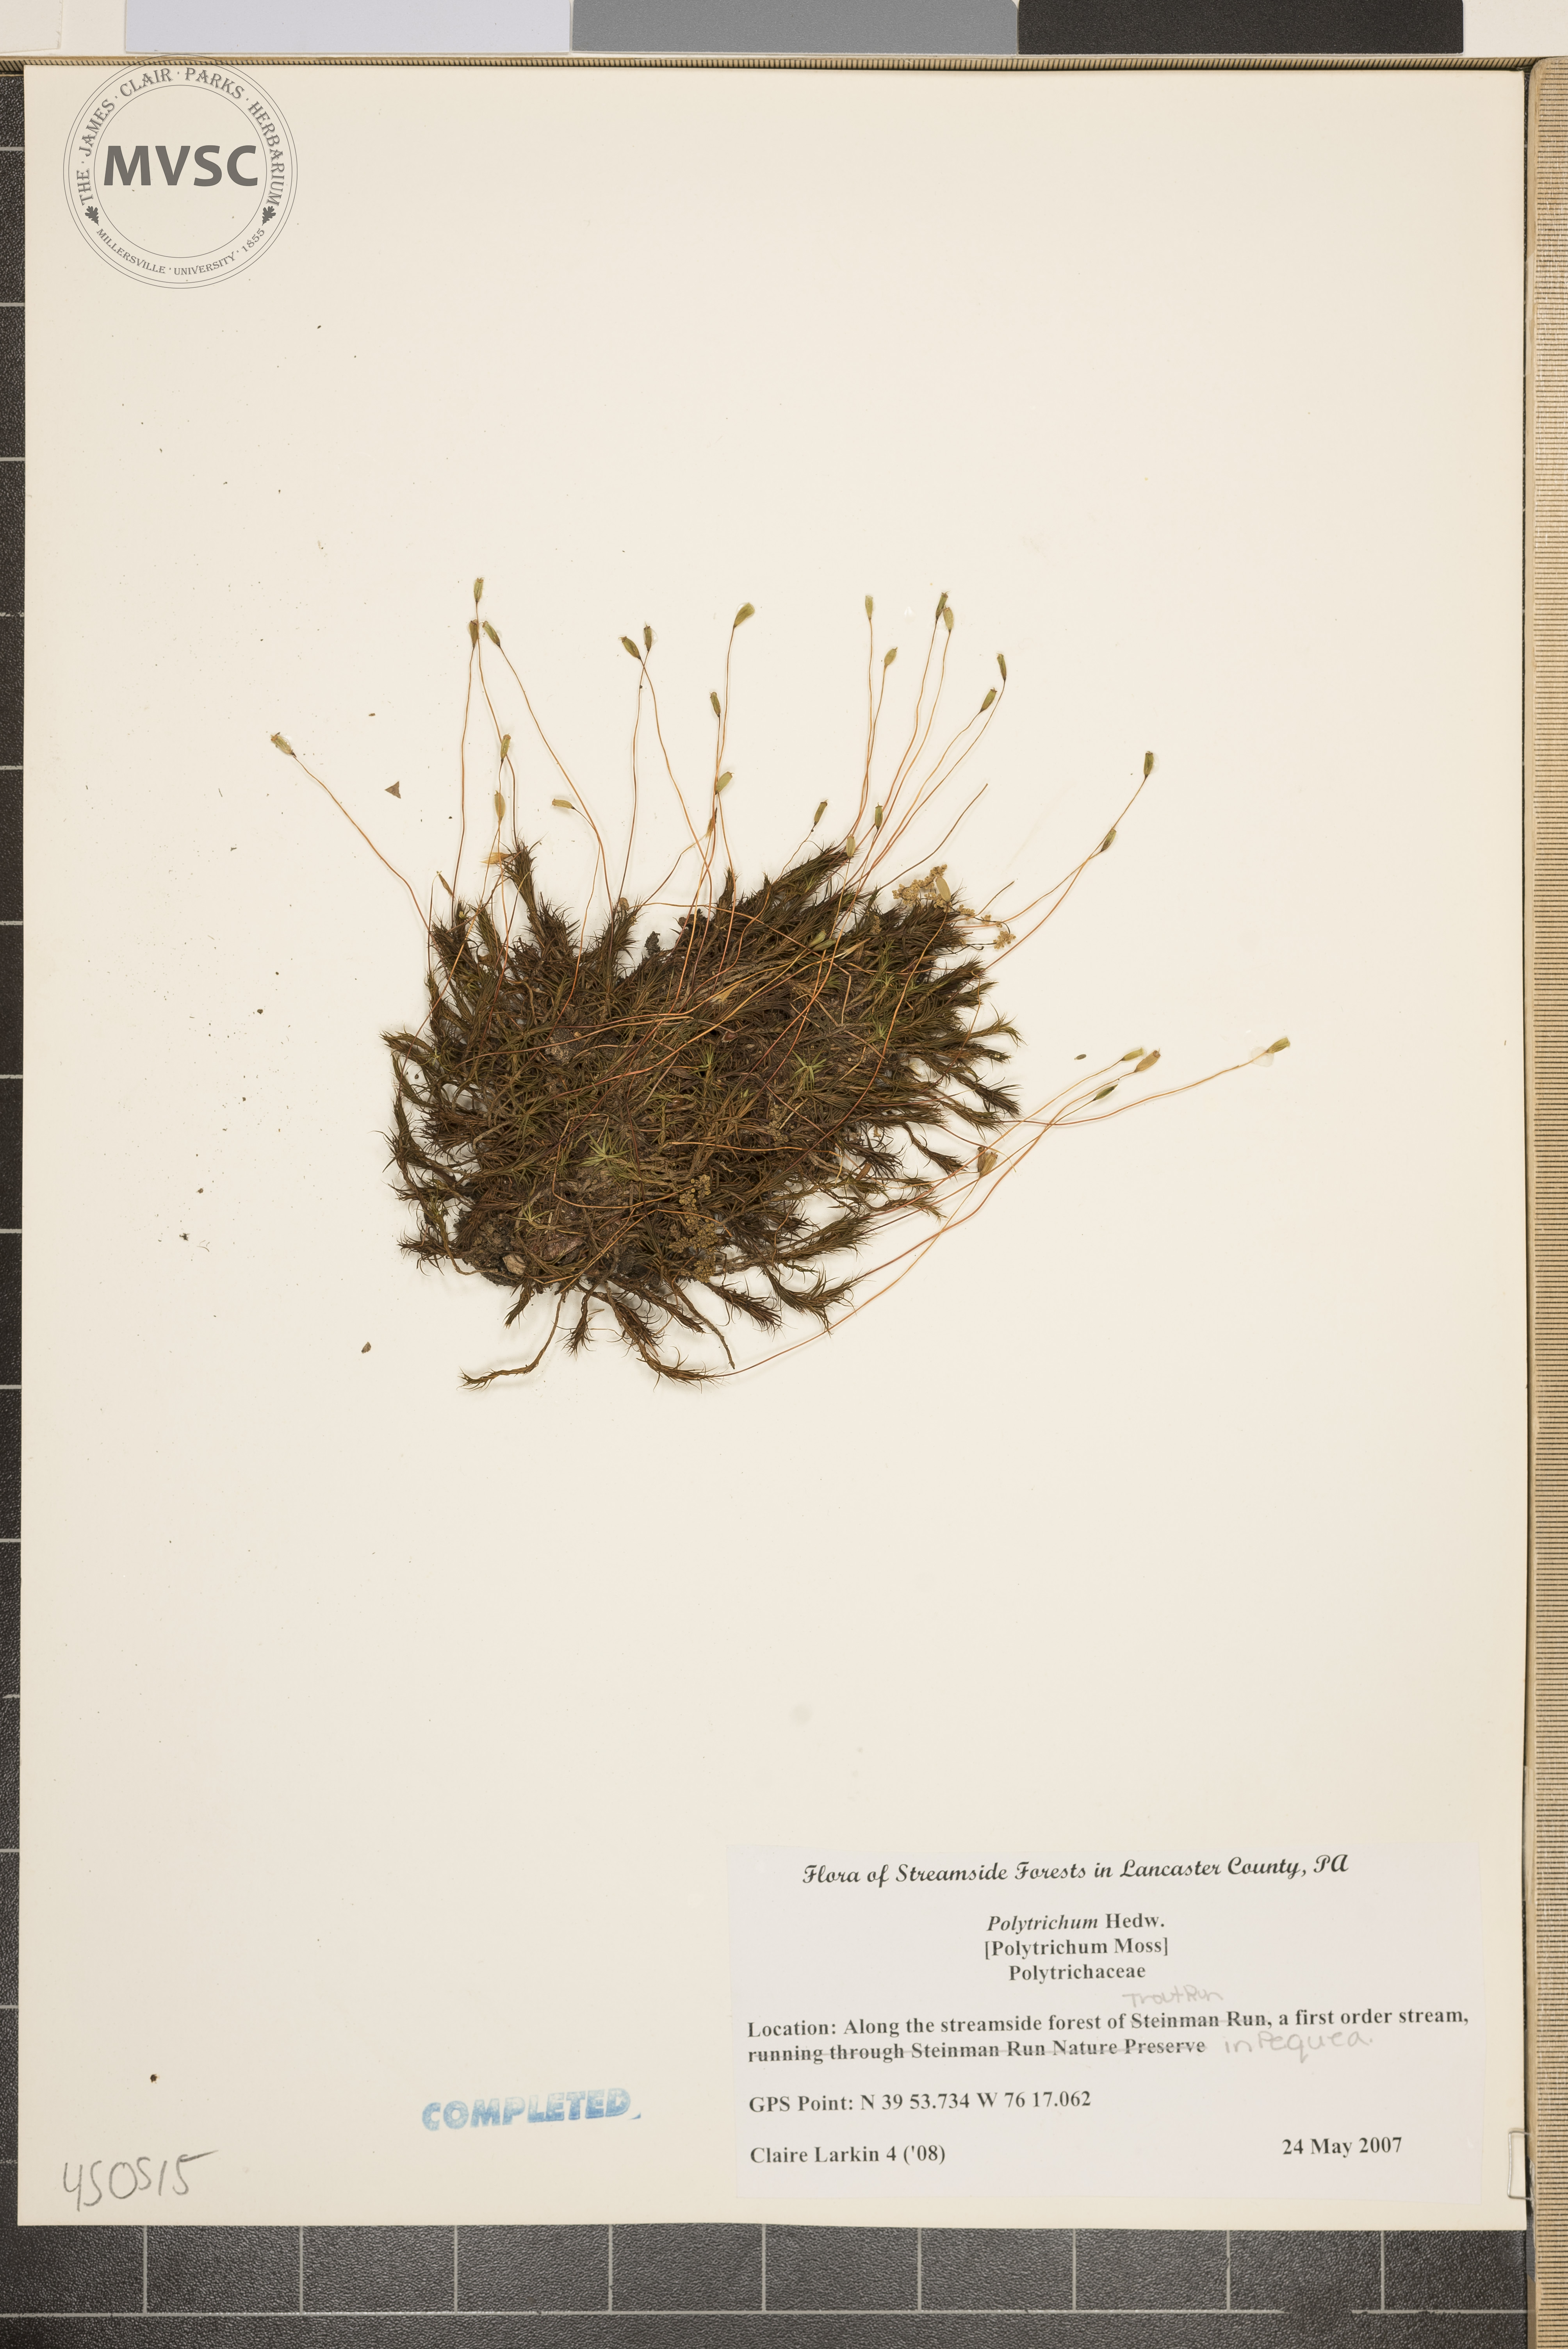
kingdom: Plantae
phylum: Bryophyta
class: Polytrichopsida
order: Polytrichales
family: Polytrichaceae
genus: Polytrichum
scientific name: Polytrichum
